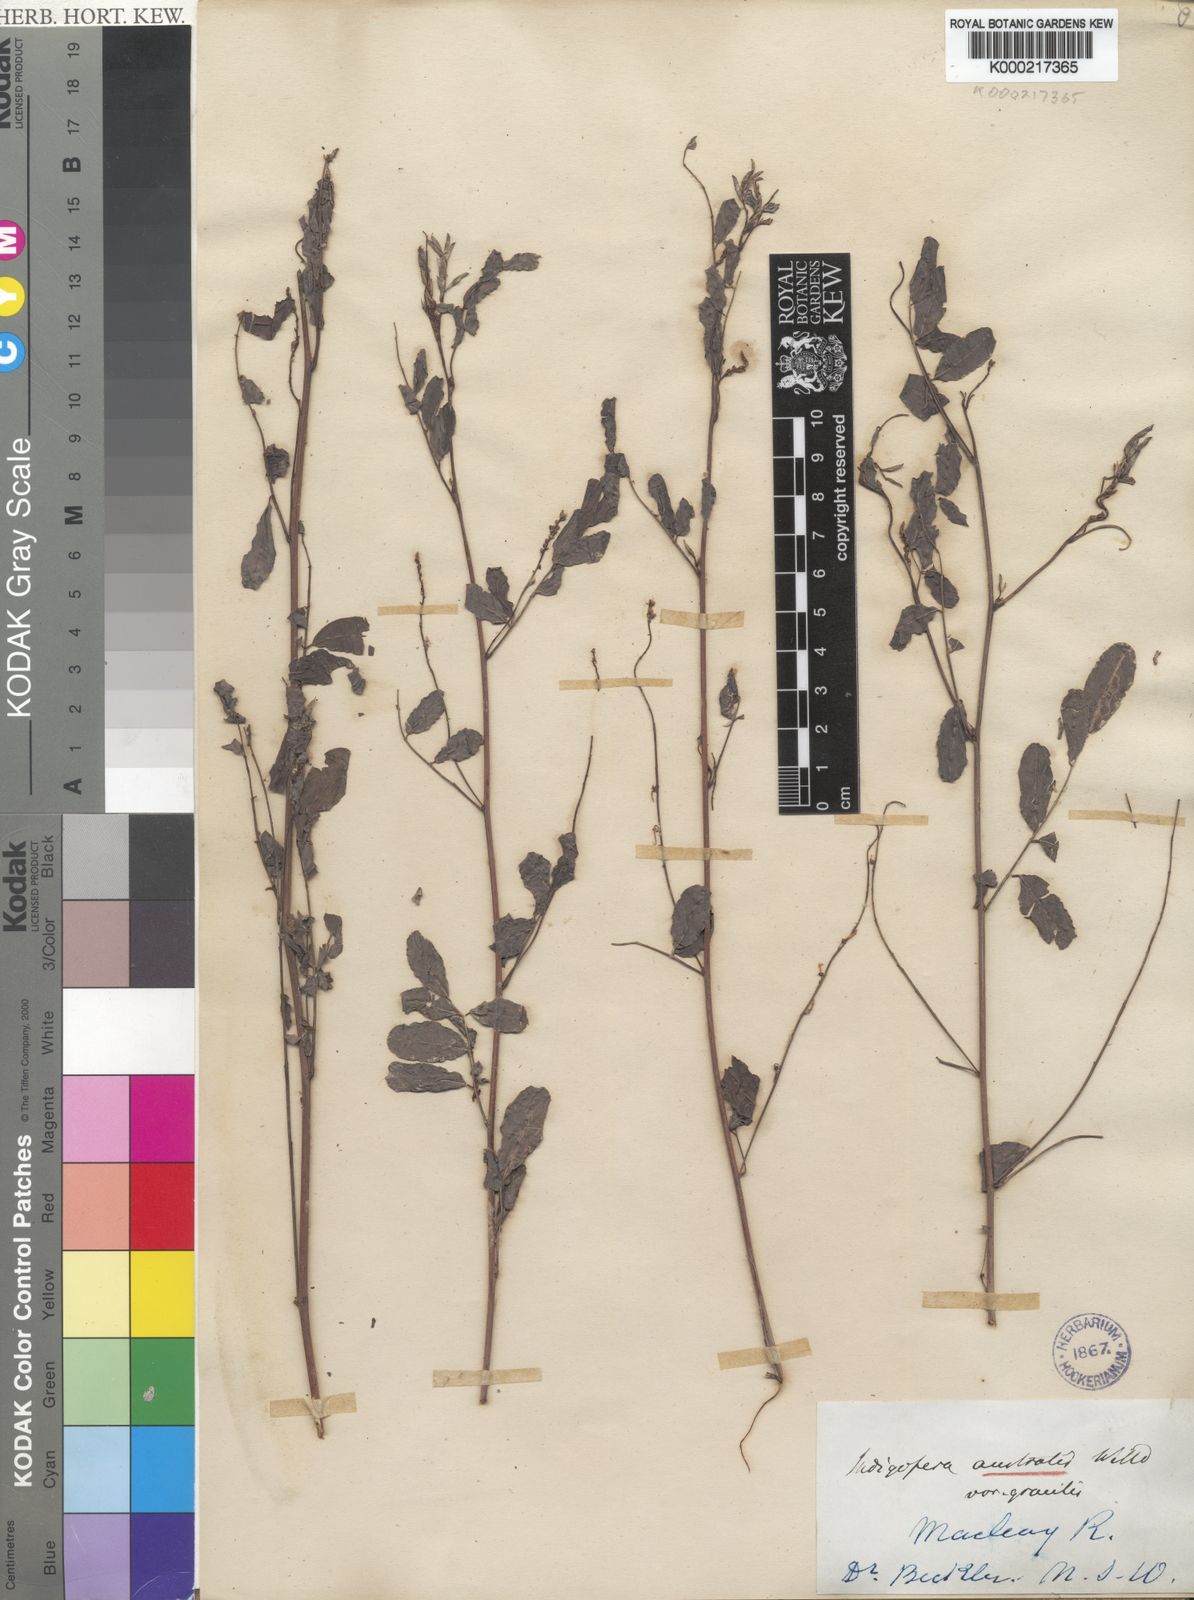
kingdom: Plantae
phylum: Tracheophyta
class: Magnoliopsida
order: Fabales
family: Fabaceae
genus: Indigofera
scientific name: Indigofera australis
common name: Australian indigo
